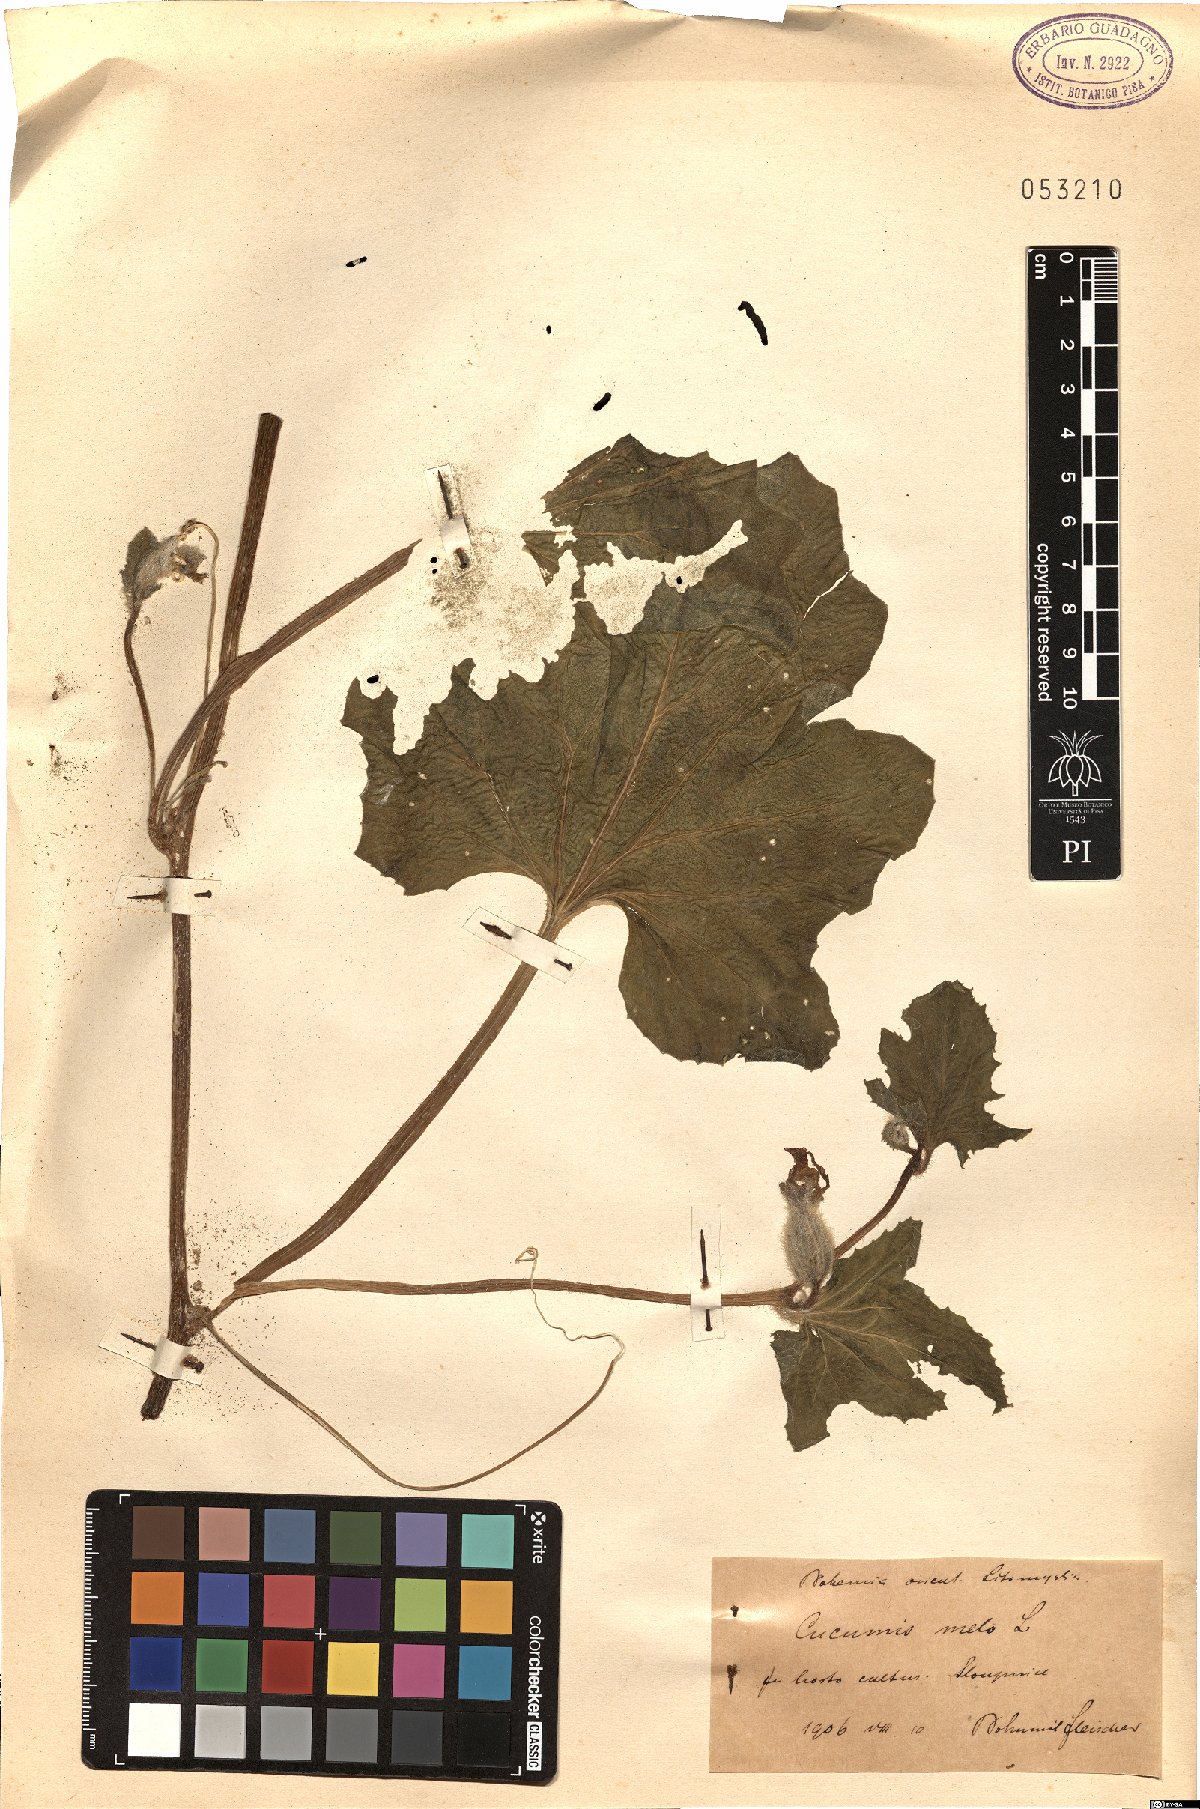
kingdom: Plantae
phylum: Tracheophyta
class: Magnoliopsida
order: Cucurbitales
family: Cucurbitaceae
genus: Cucumis
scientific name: Cucumis melo
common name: Melon
